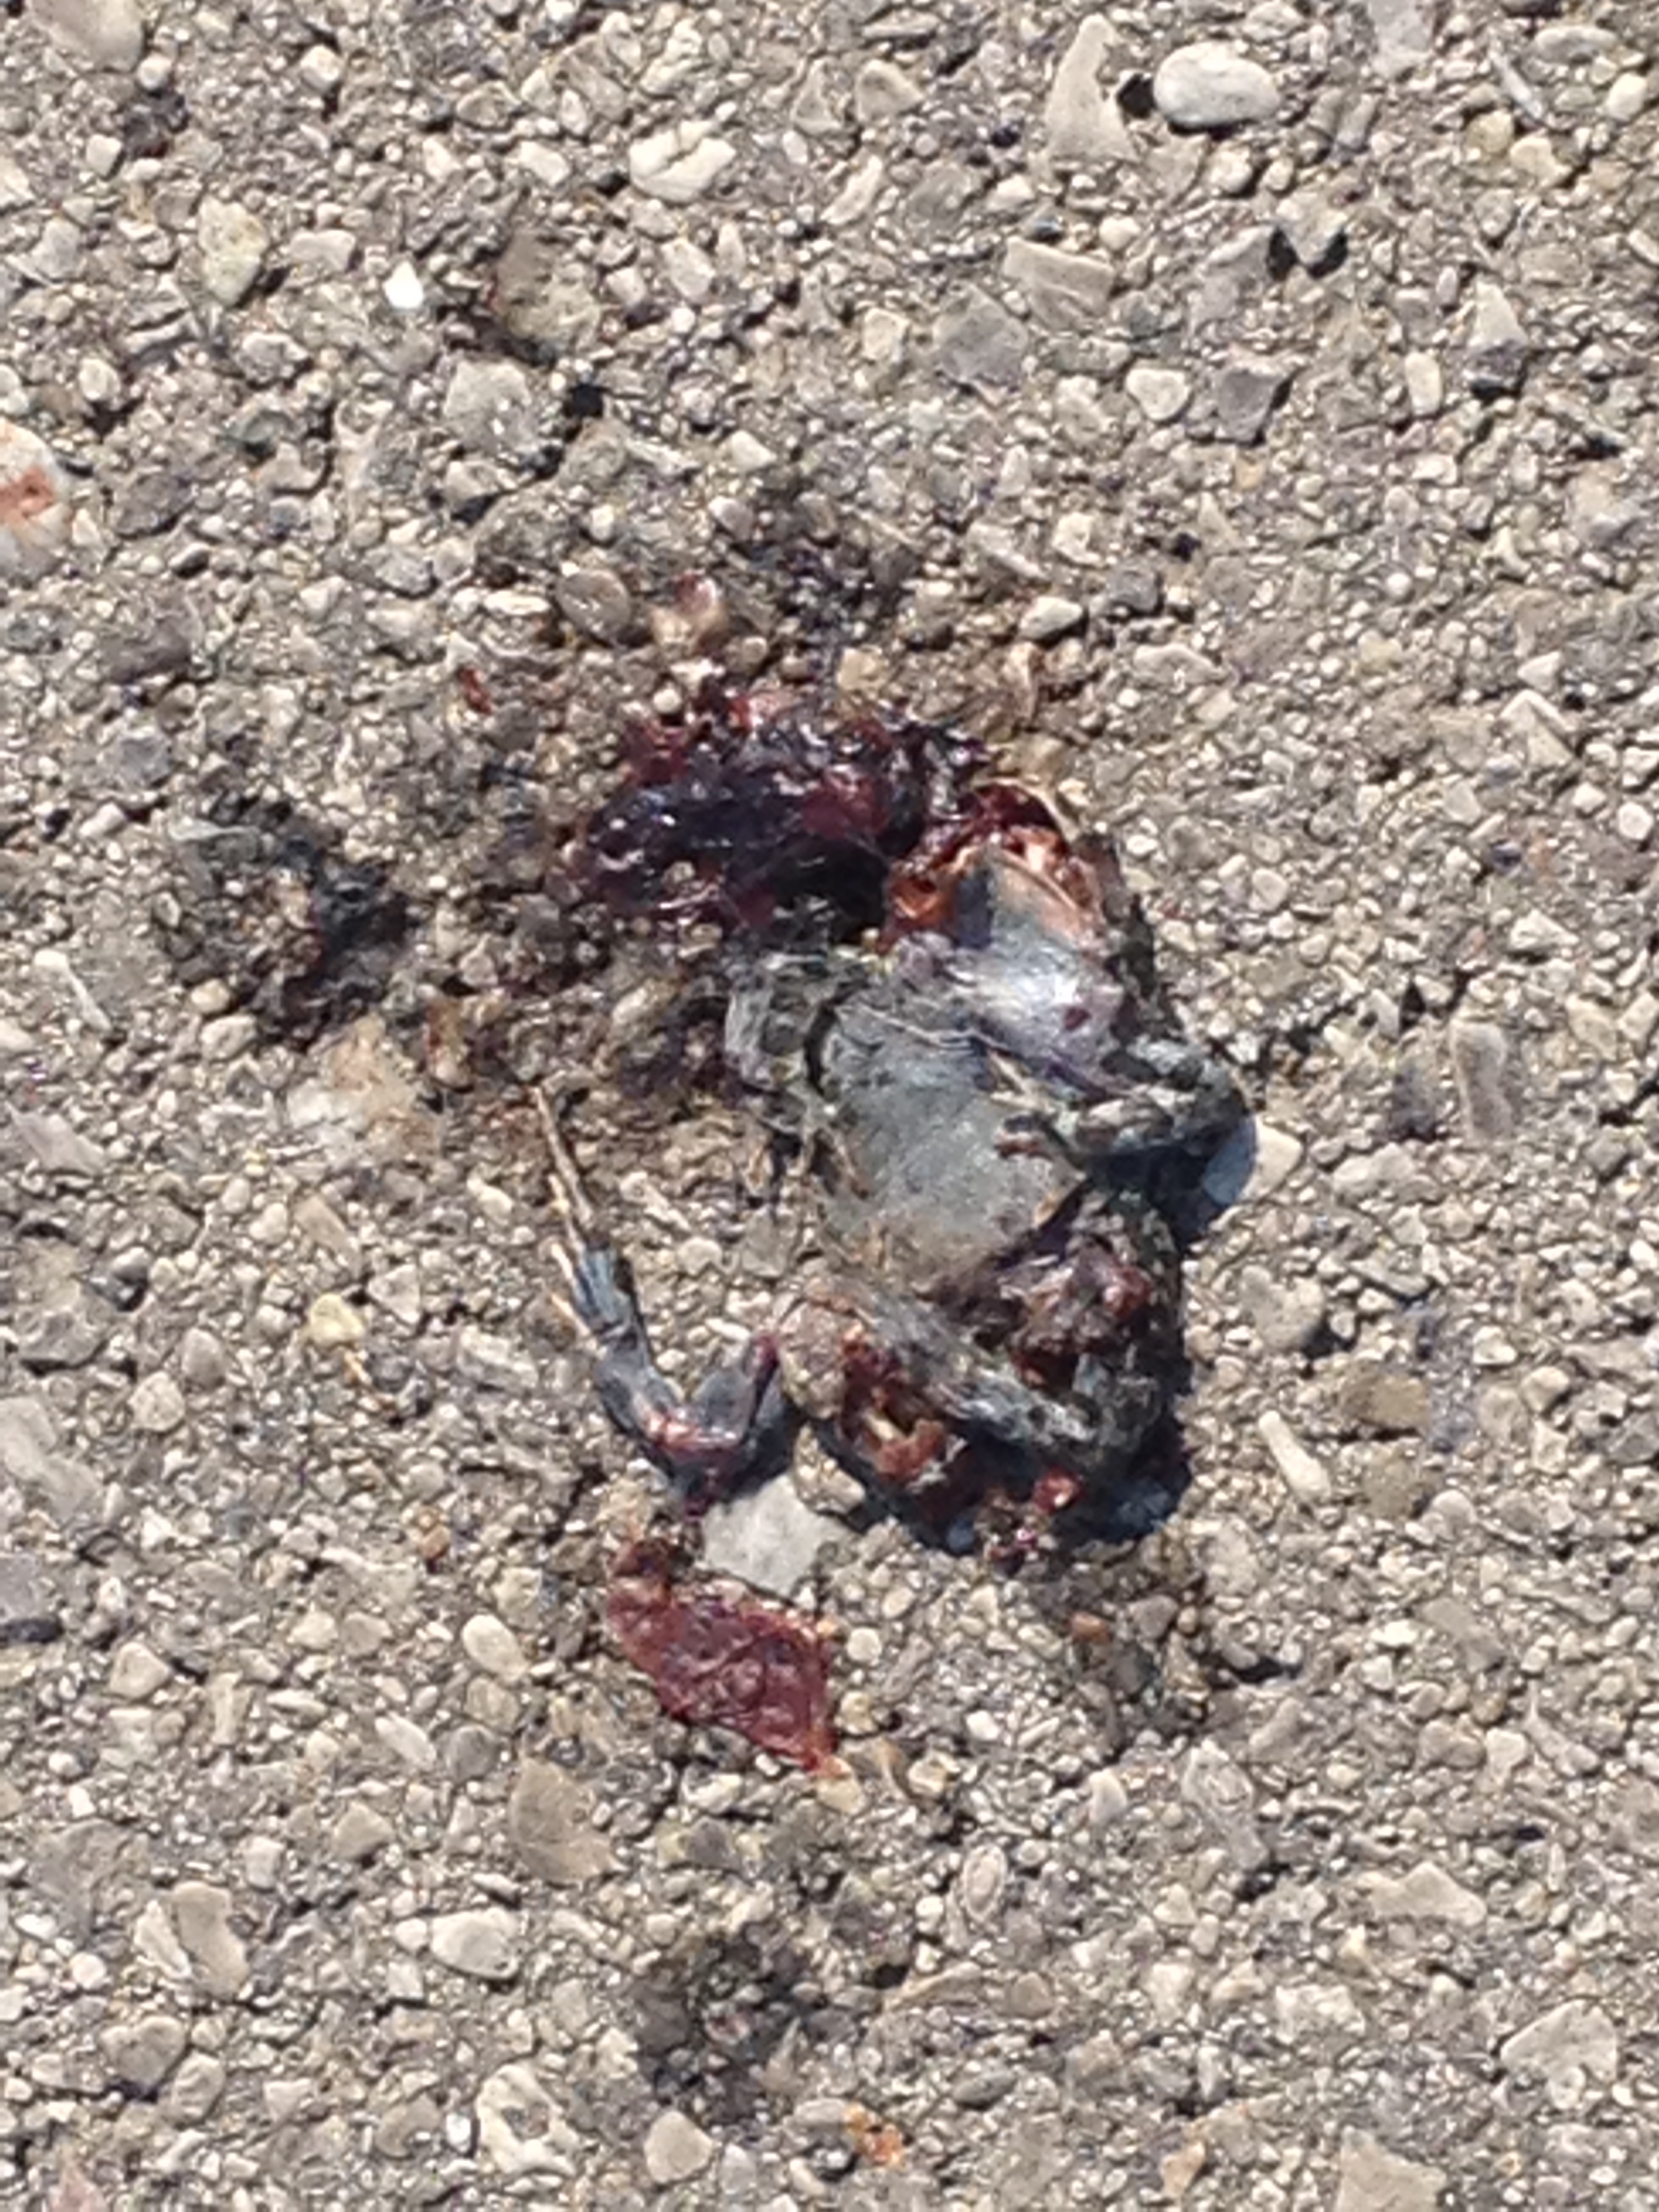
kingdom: Animalia
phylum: Chordata
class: Amphibia
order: Anura
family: Bufonidae
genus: Bufotes
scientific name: Bufotes viridis
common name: European green toad
